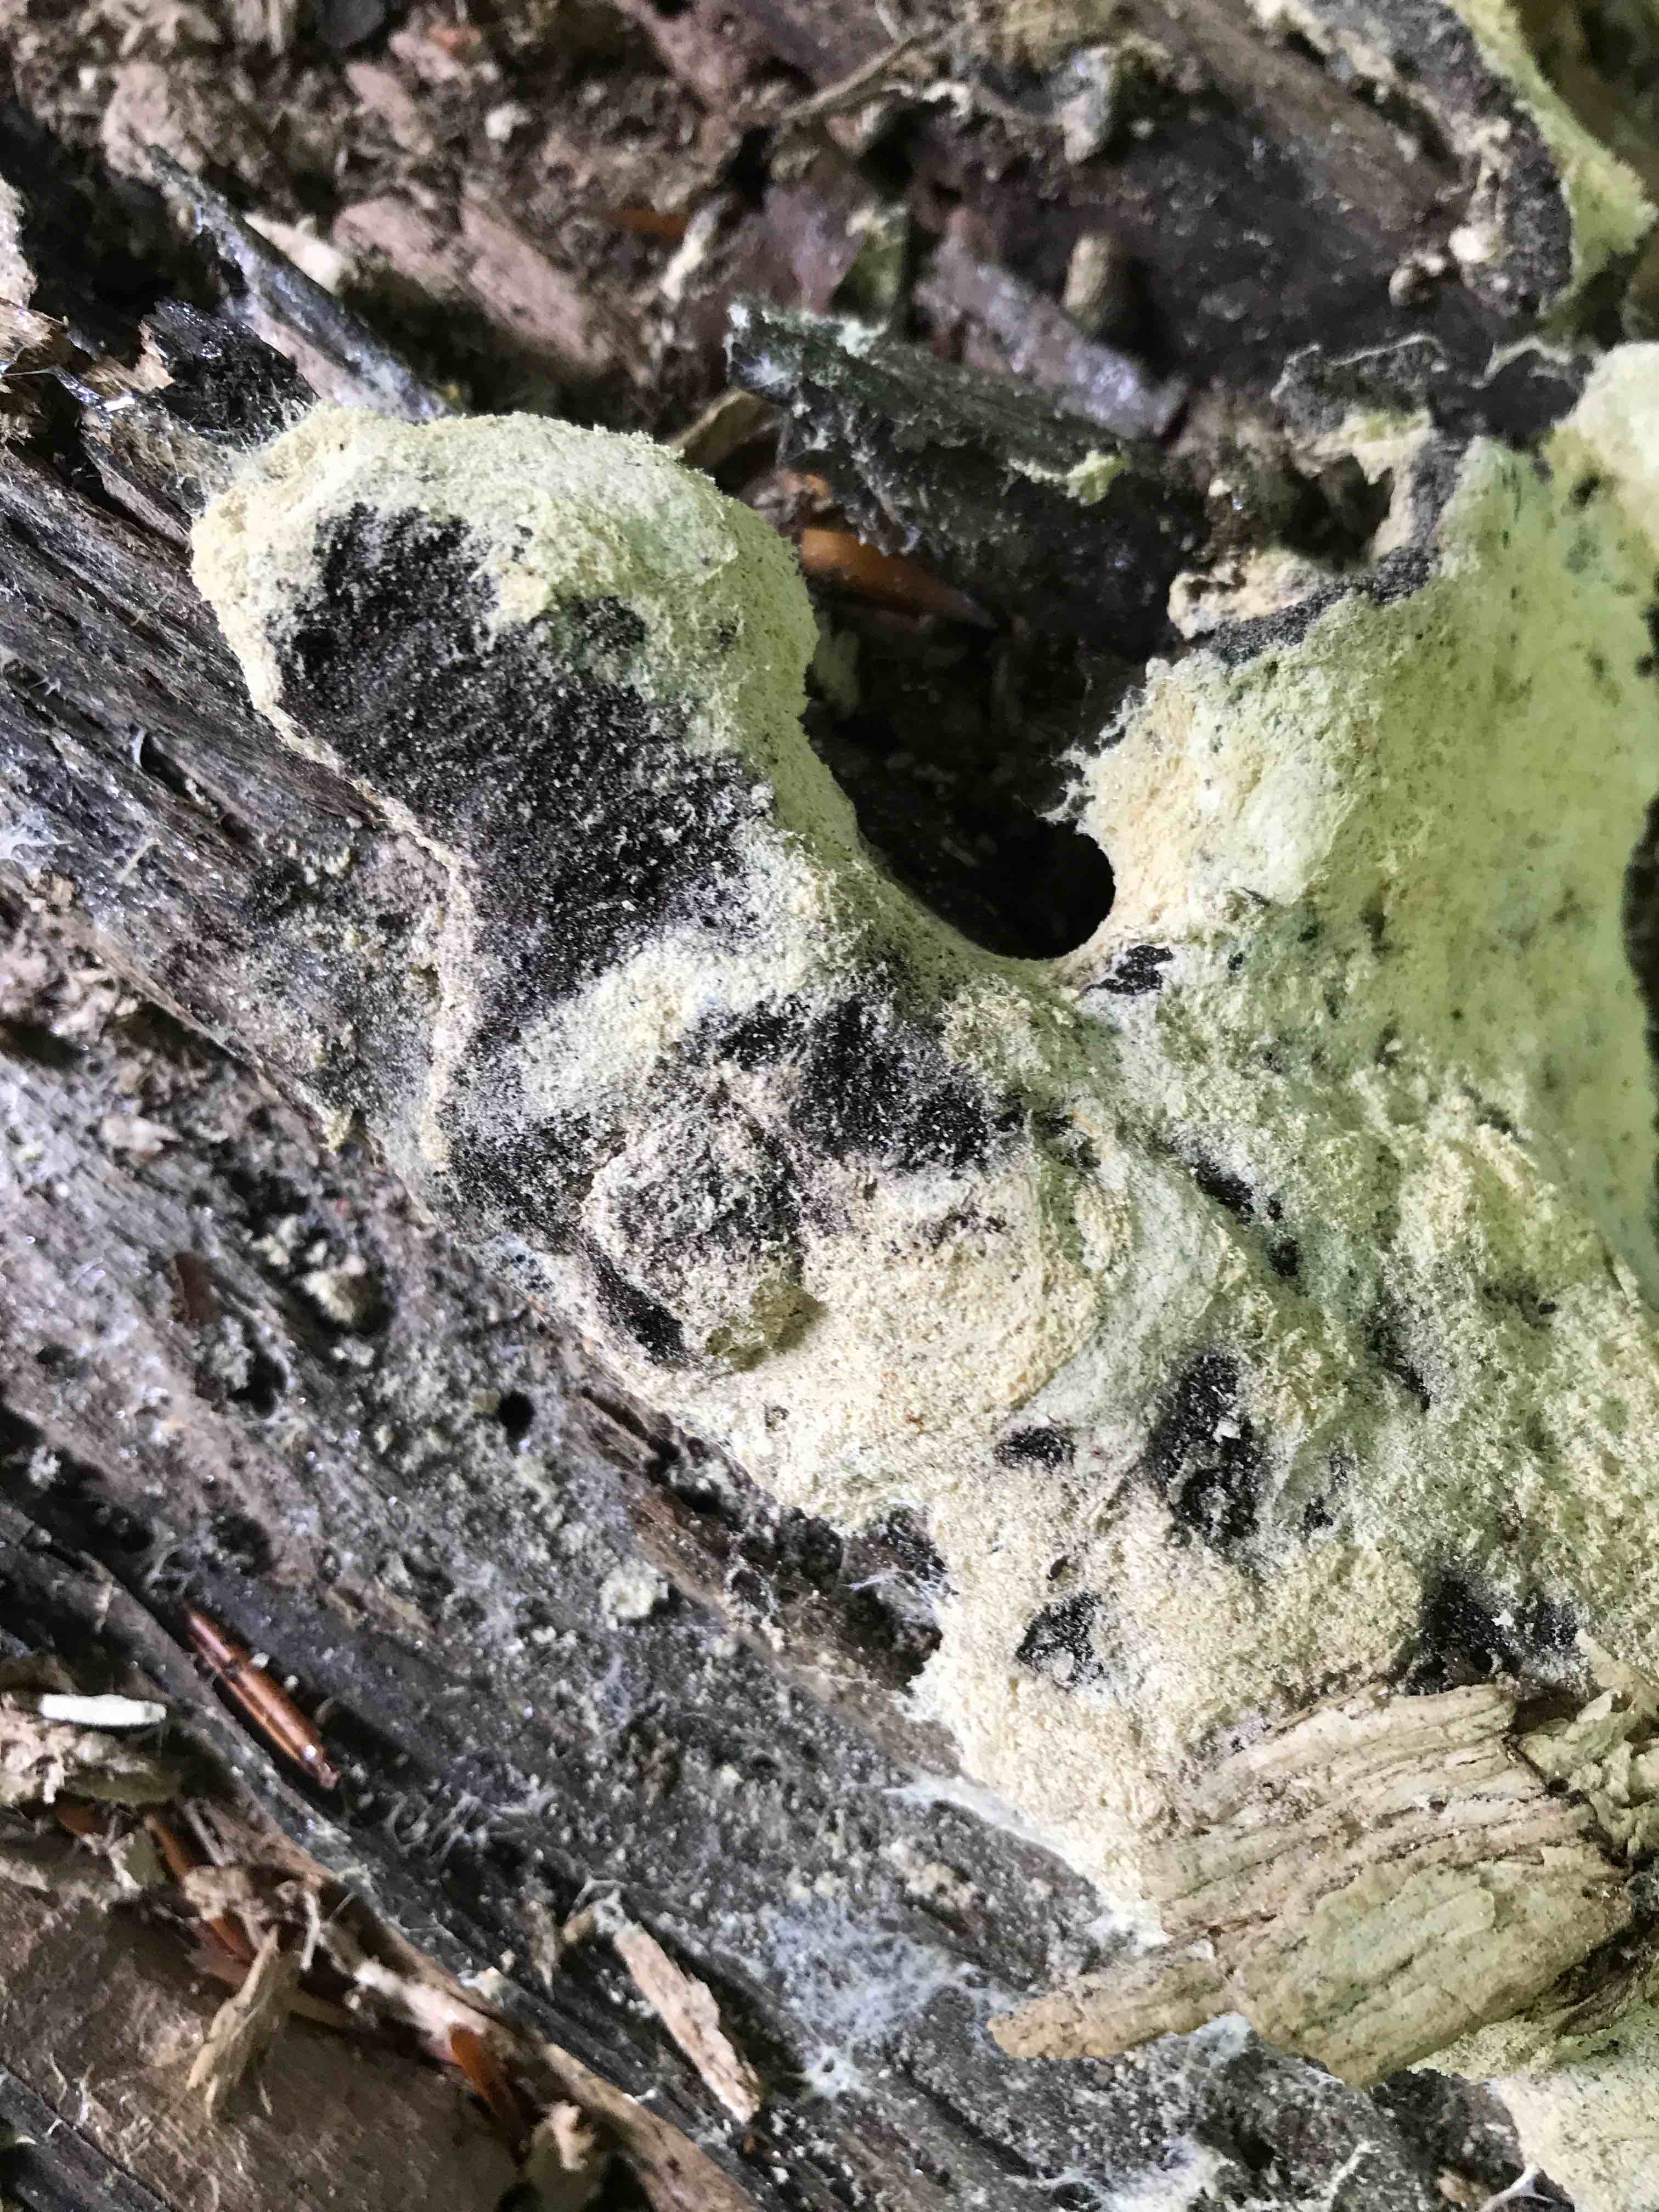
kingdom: Protozoa
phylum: Mycetozoa
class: Myxomycetes
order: Physarales
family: Physaraceae
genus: Fuligo
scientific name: Fuligo septica
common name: gul troldsmør
